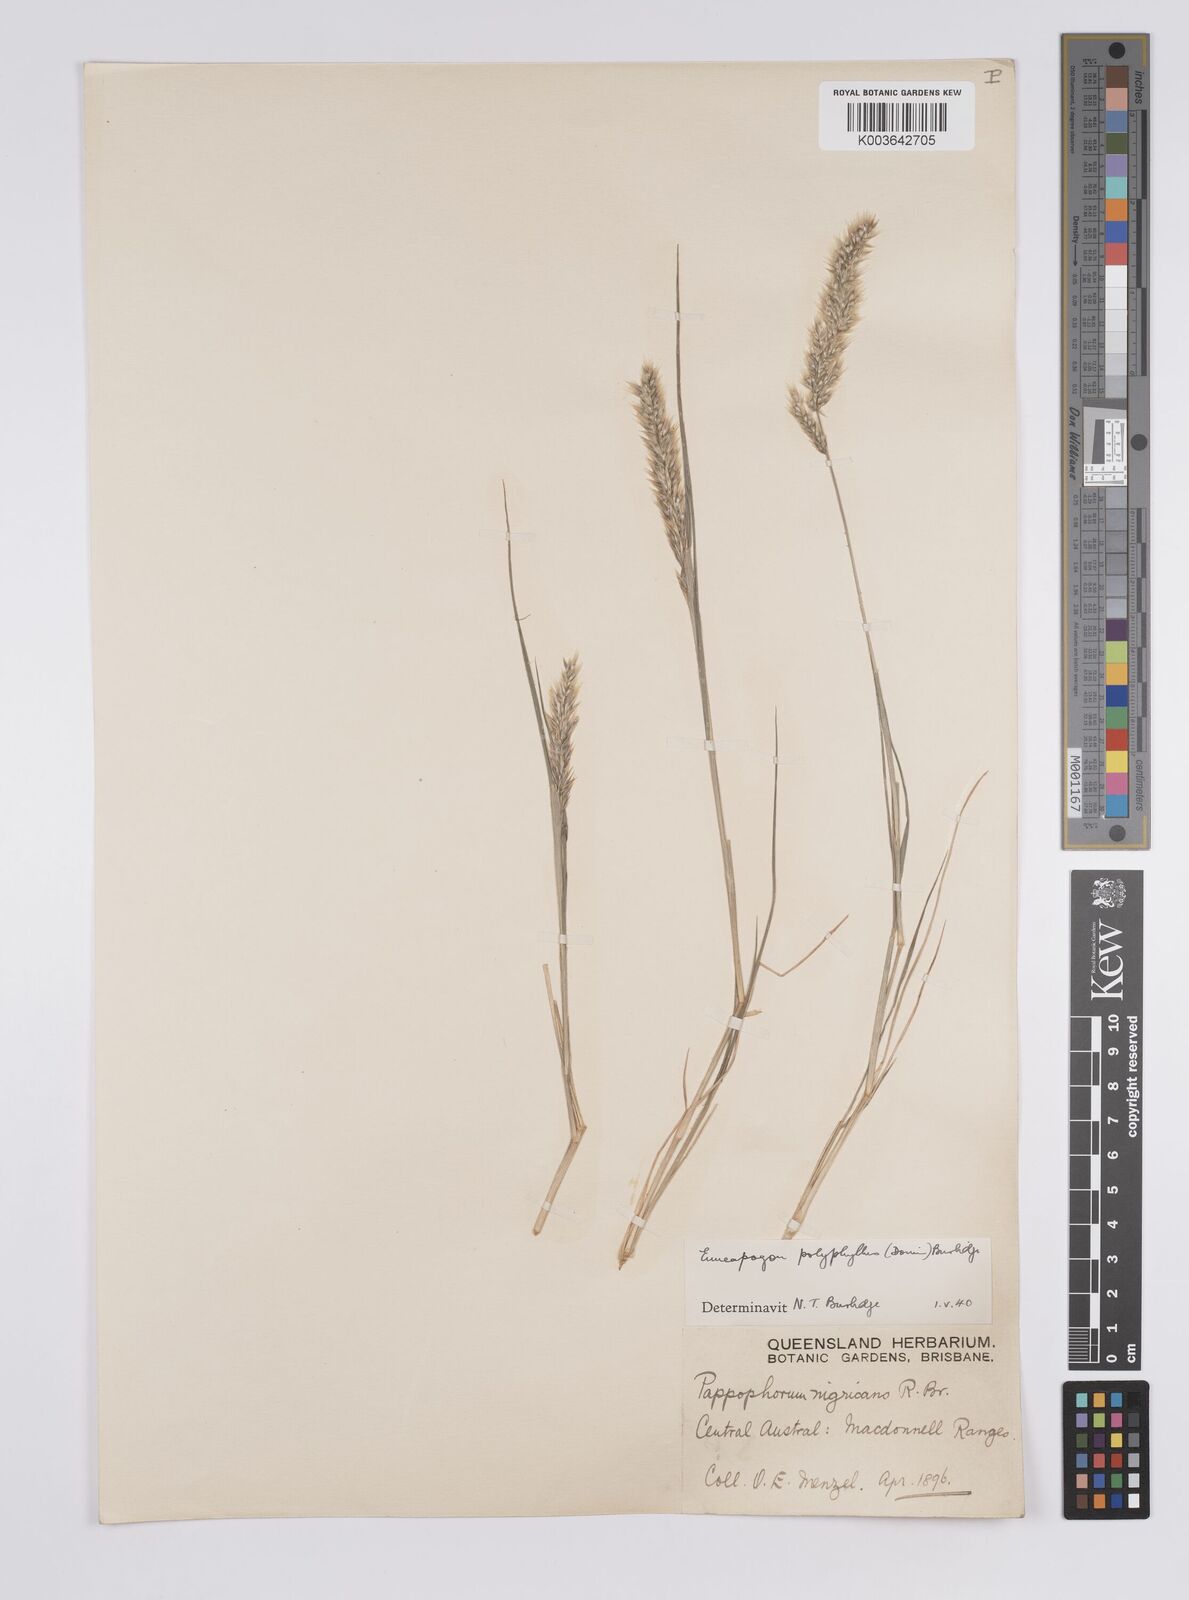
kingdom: Plantae
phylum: Tracheophyta
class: Liliopsida
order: Poales
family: Poaceae
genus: Enneapogon
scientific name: Enneapogon polyphyllus
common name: Leafy nineawn
